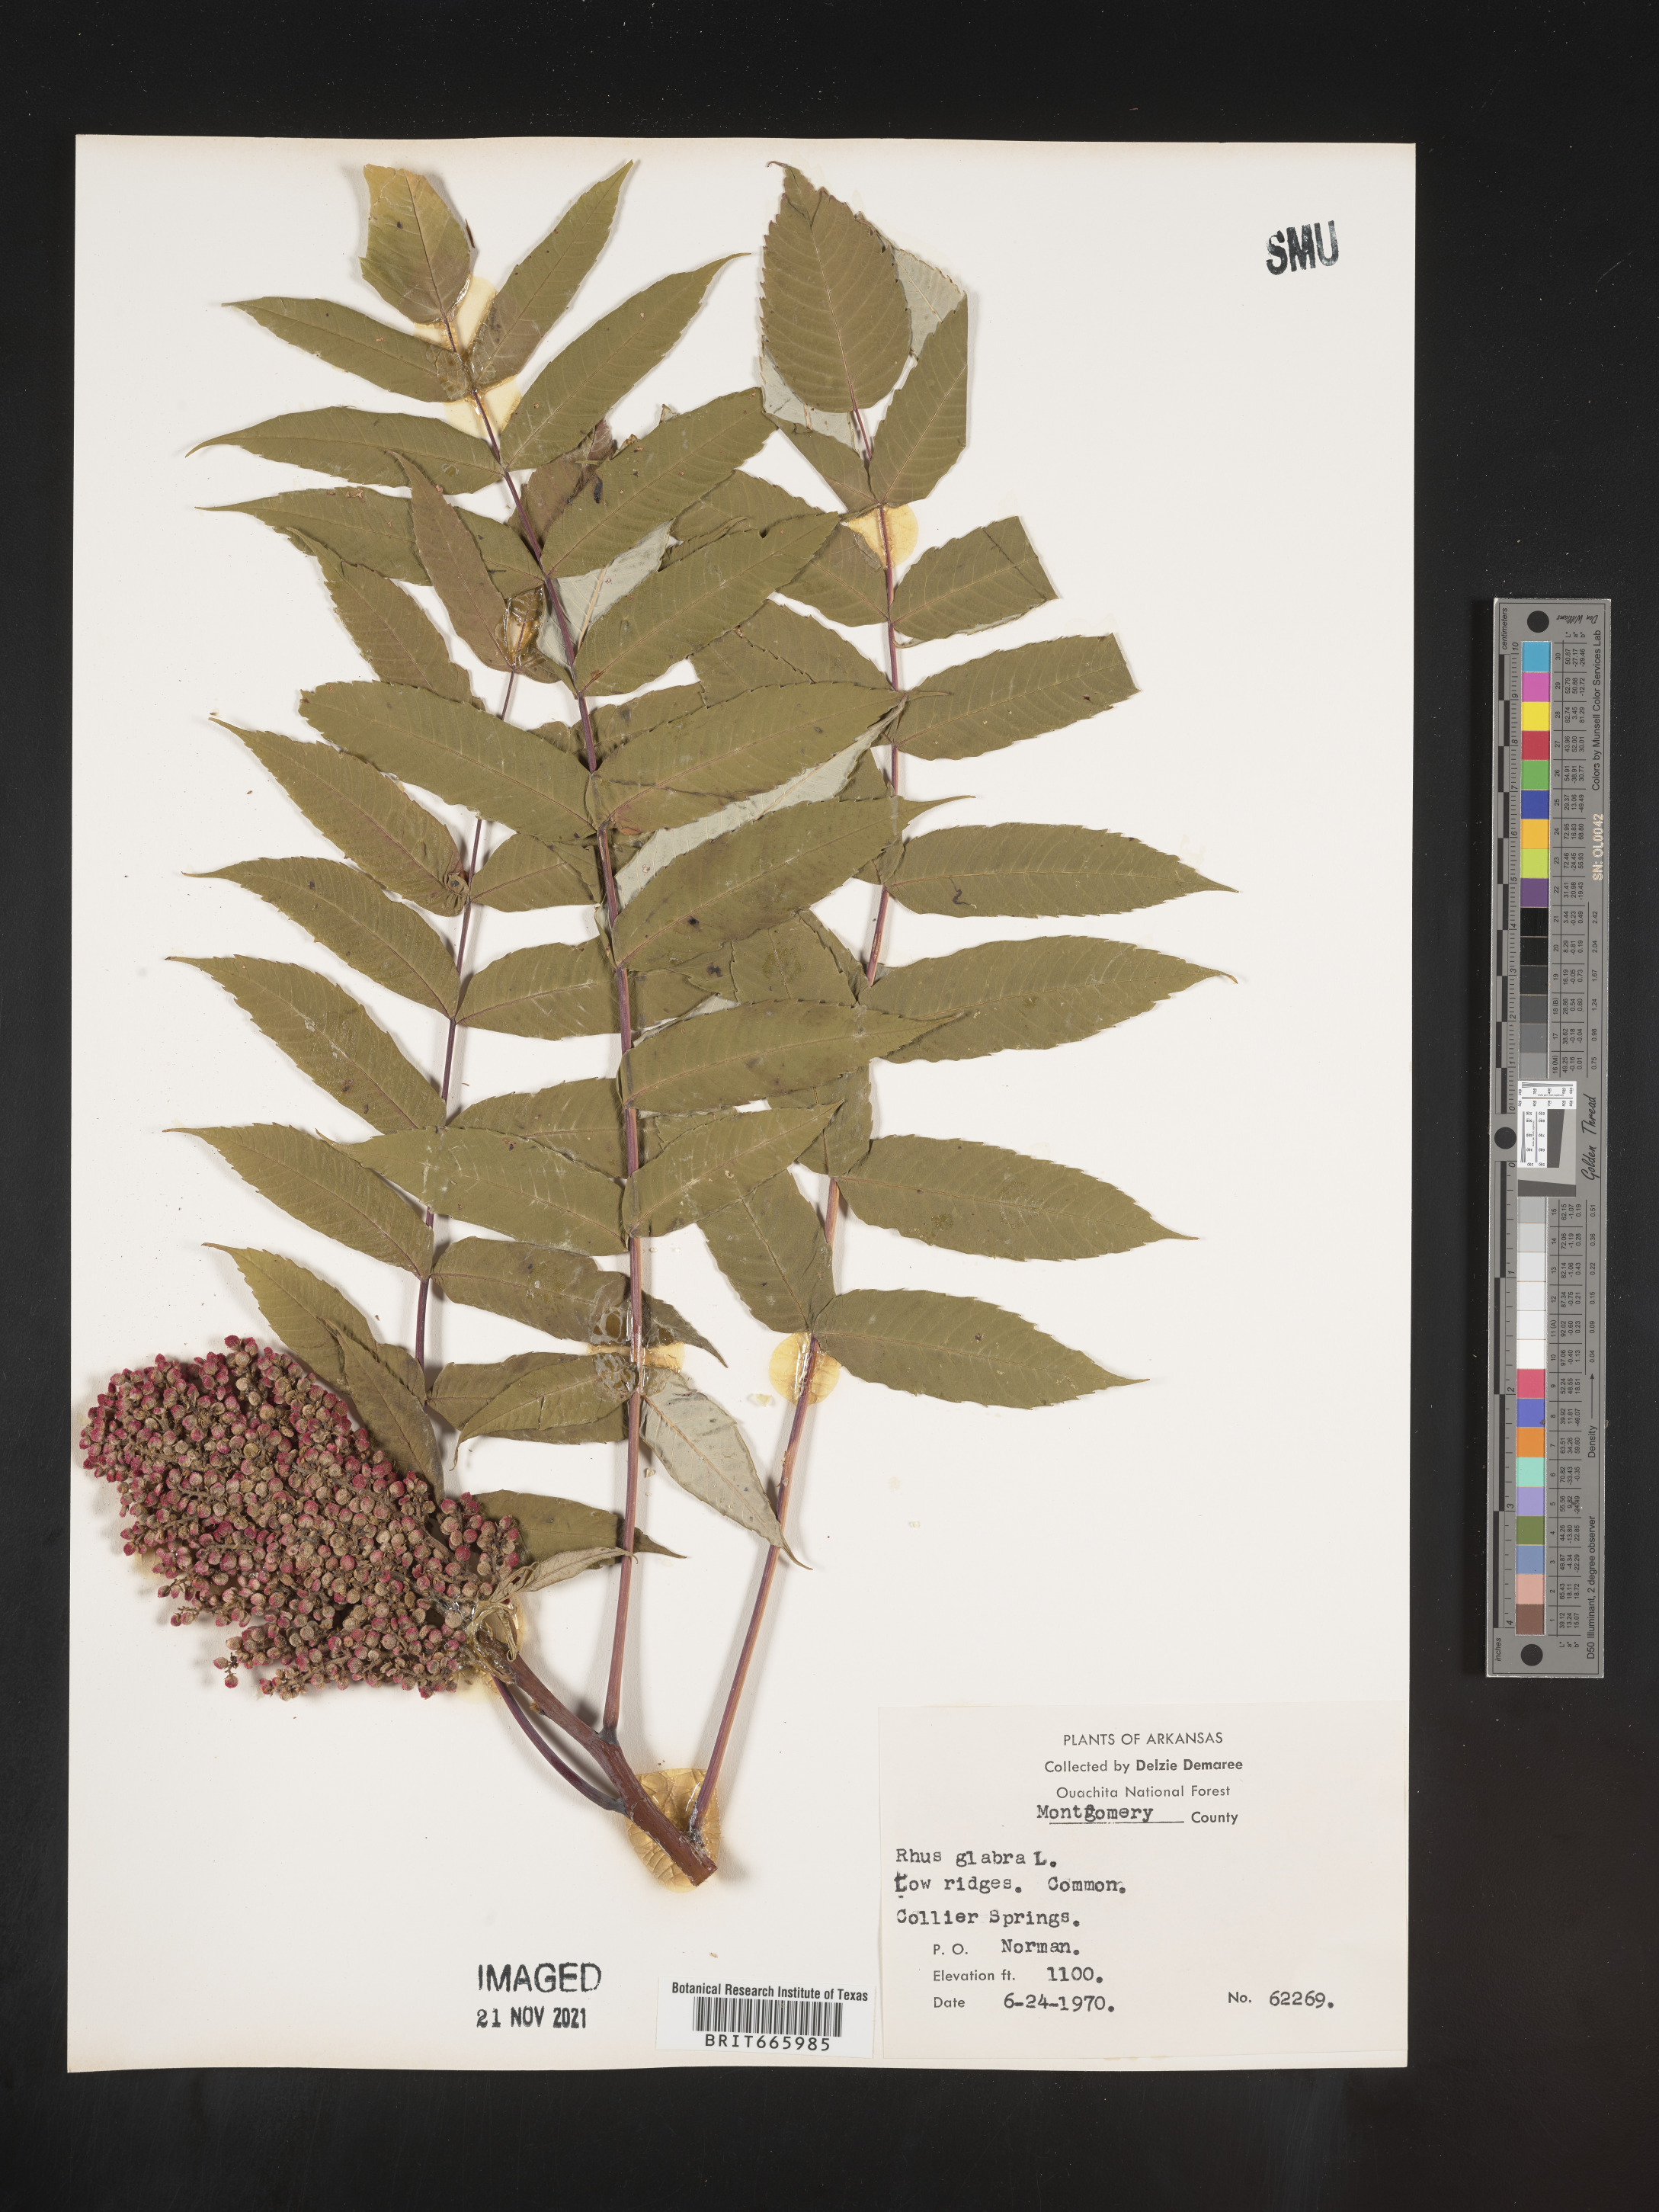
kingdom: Plantae
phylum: Tracheophyta
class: Magnoliopsida
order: Sapindales
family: Anacardiaceae
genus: Rhus
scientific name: Rhus glabra
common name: Scarlet sumac
